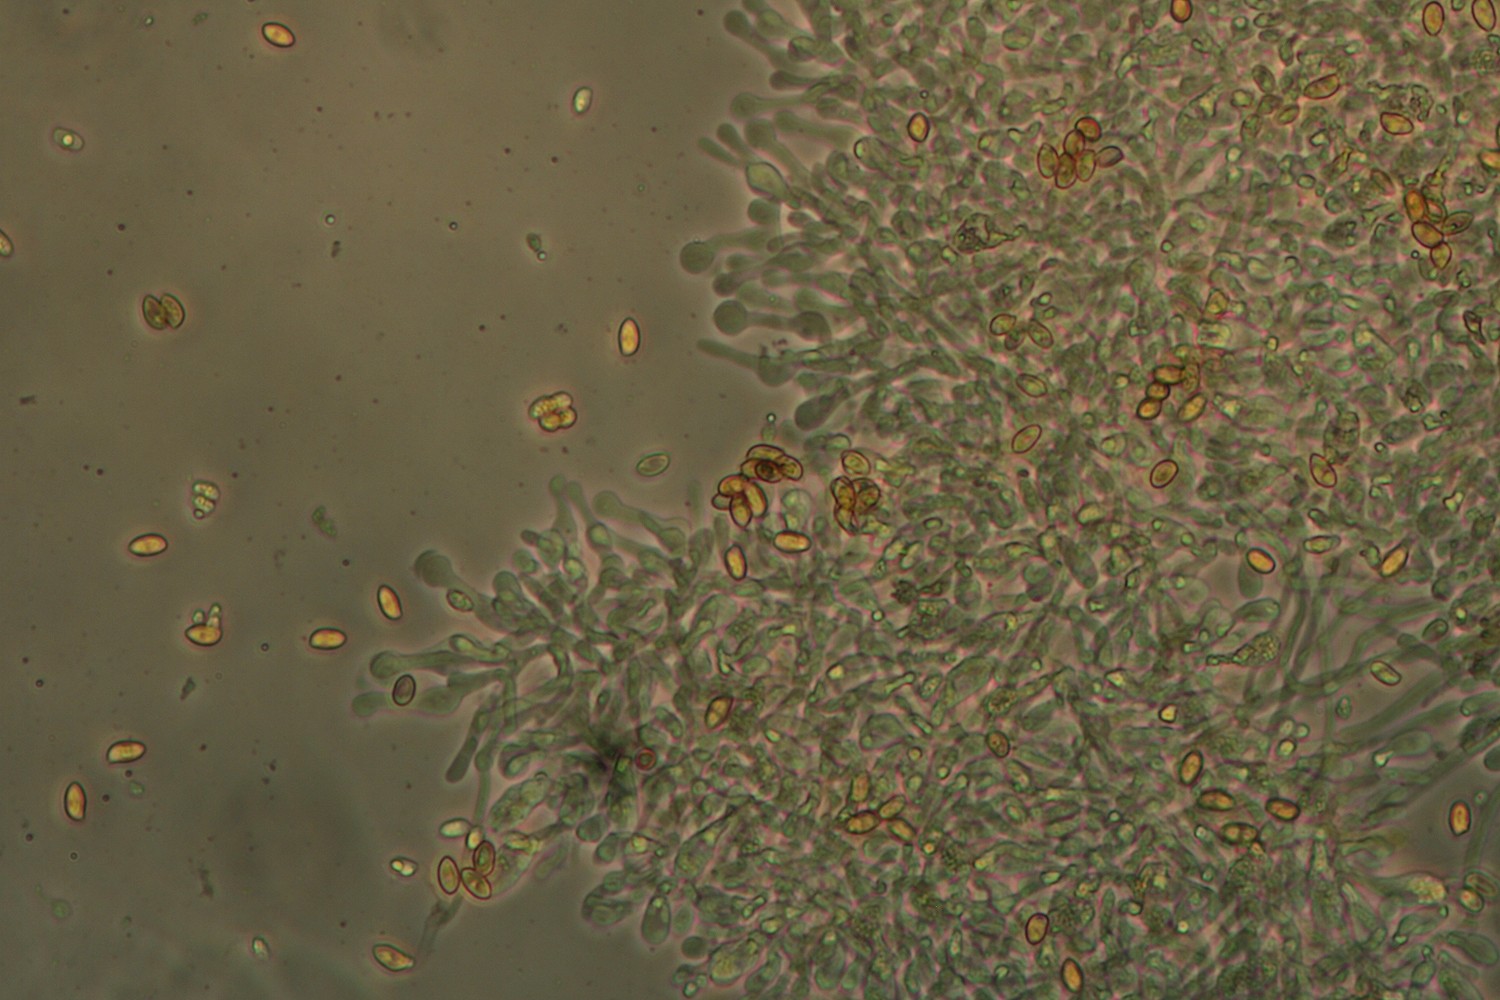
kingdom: Fungi
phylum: Basidiomycota
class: Agaricomycetes
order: Agaricales
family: Hymenogastraceae
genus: Galerina
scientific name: Galerina
